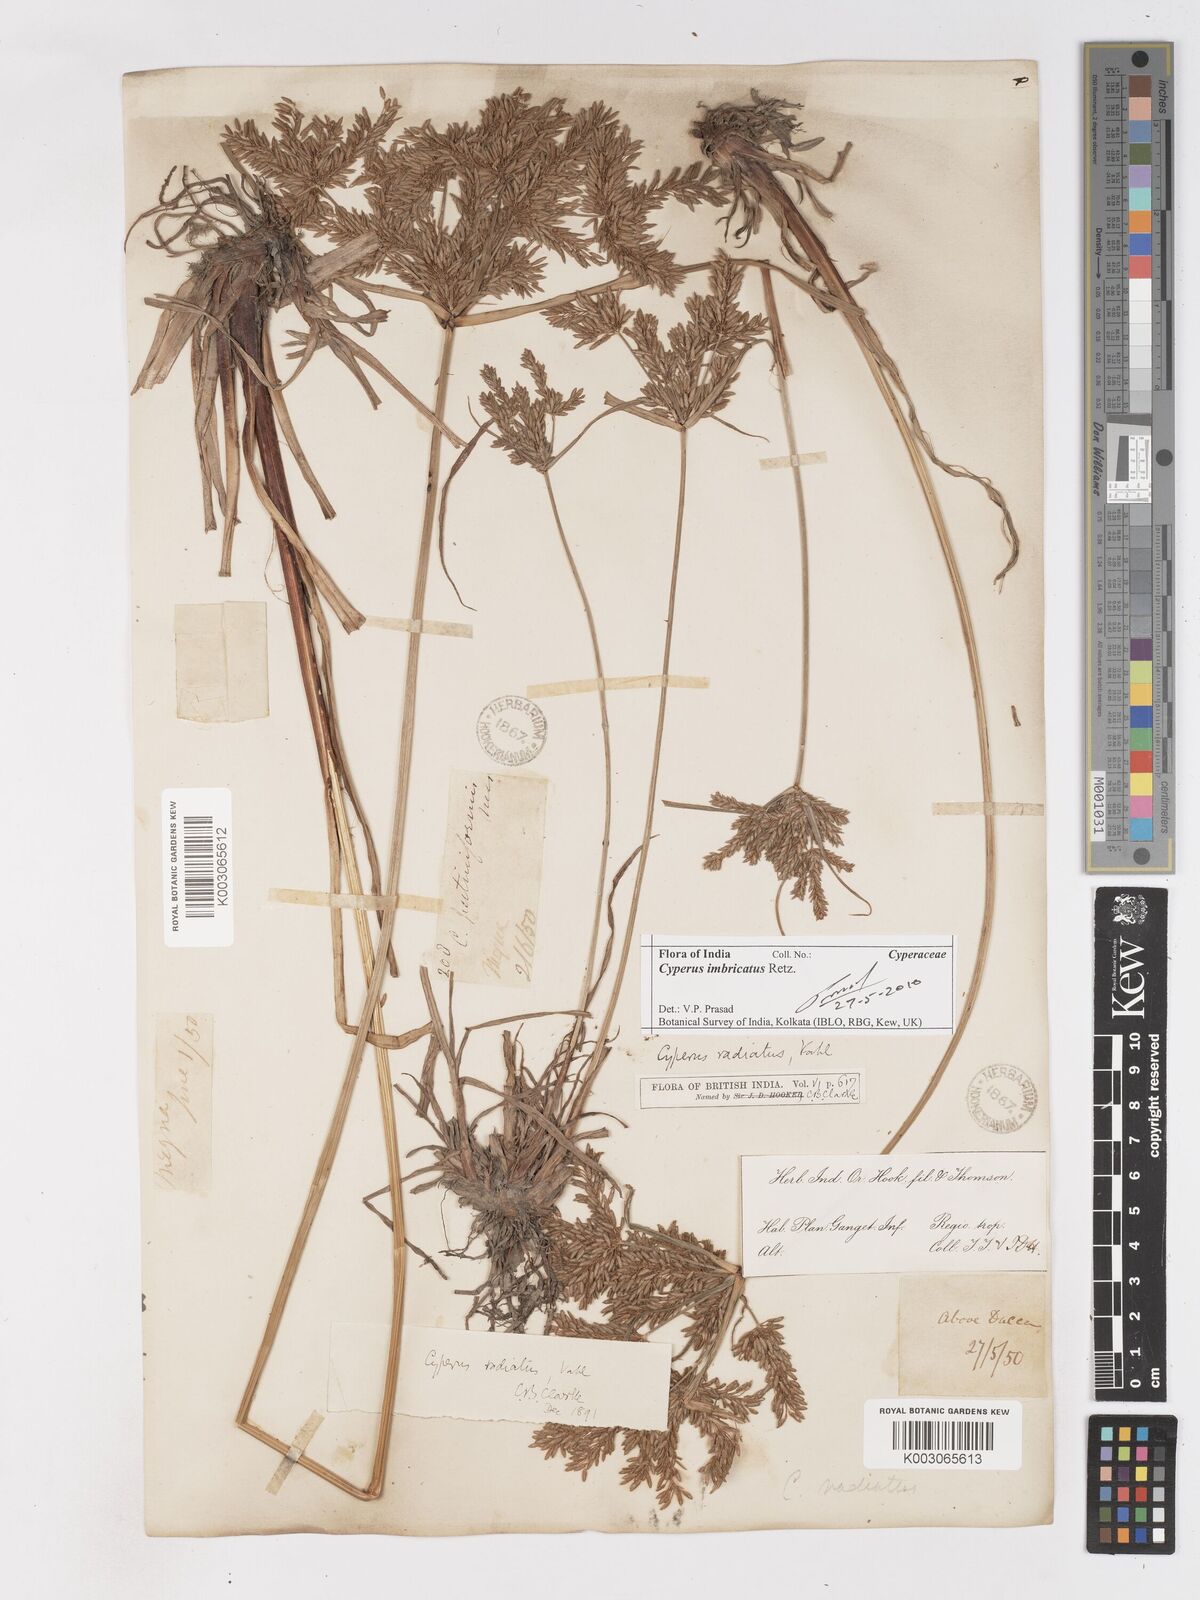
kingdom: Plantae
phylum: Tracheophyta
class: Liliopsida
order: Poales
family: Cyperaceae
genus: Cyperus
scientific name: Cyperus imbricatus
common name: Shingle flatsedge
